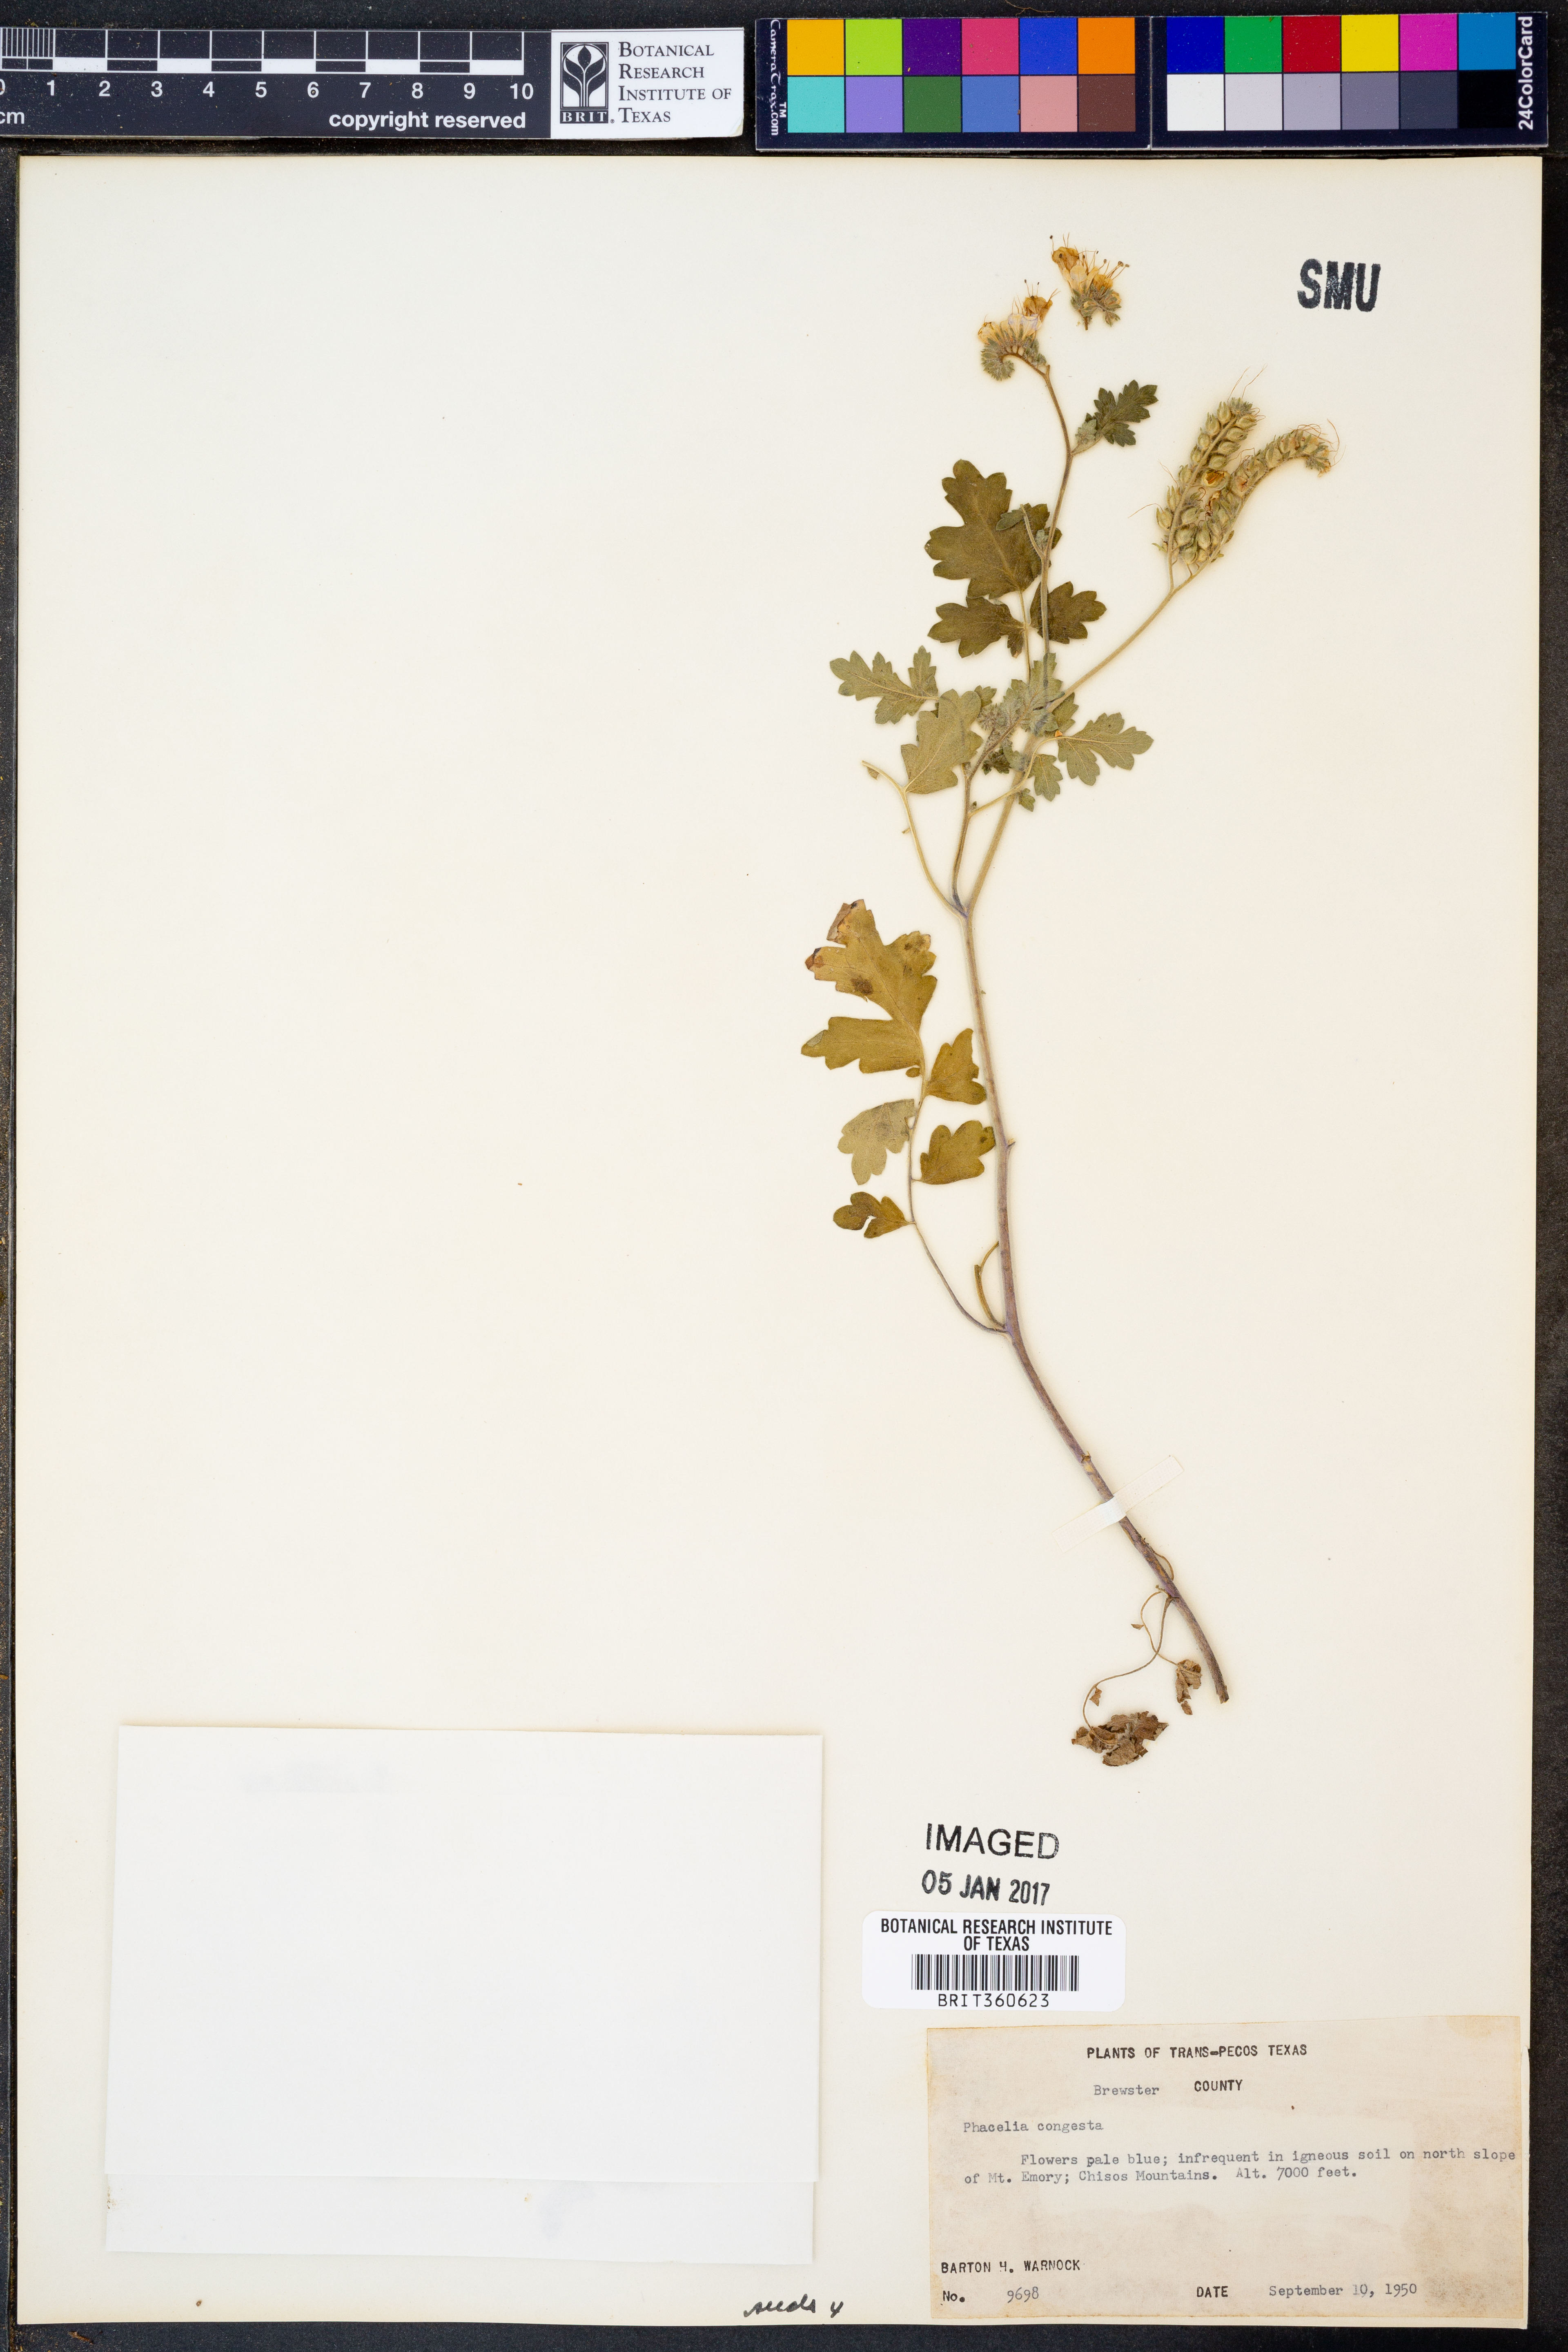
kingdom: Plantae
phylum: Tracheophyta
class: Magnoliopsida
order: Boraginales
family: Hydrophyllaceae
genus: Phacelia
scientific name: Phacelia congesta
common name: Blue curls
